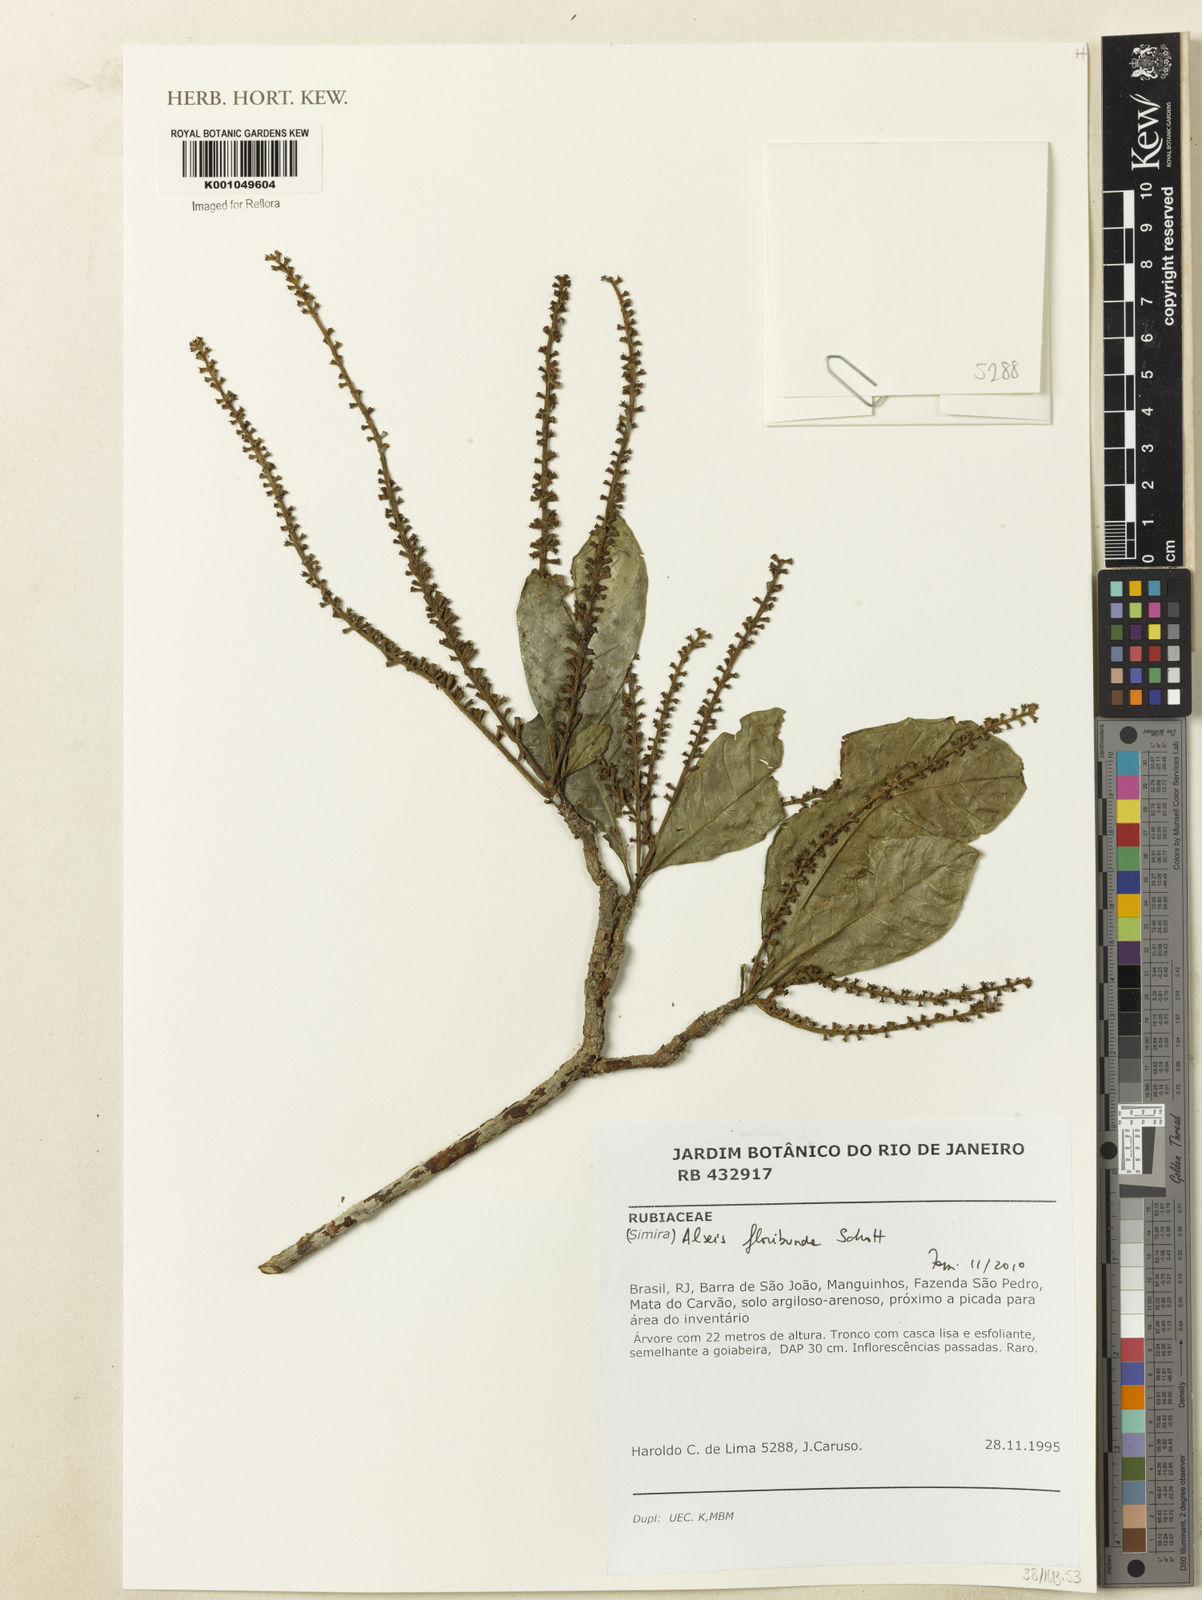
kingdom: Plantae
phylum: Tracheophyta
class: Magnoliopsida
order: Gentianales
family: Rubiaceae
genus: Alseis
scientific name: Alseis floribunda
